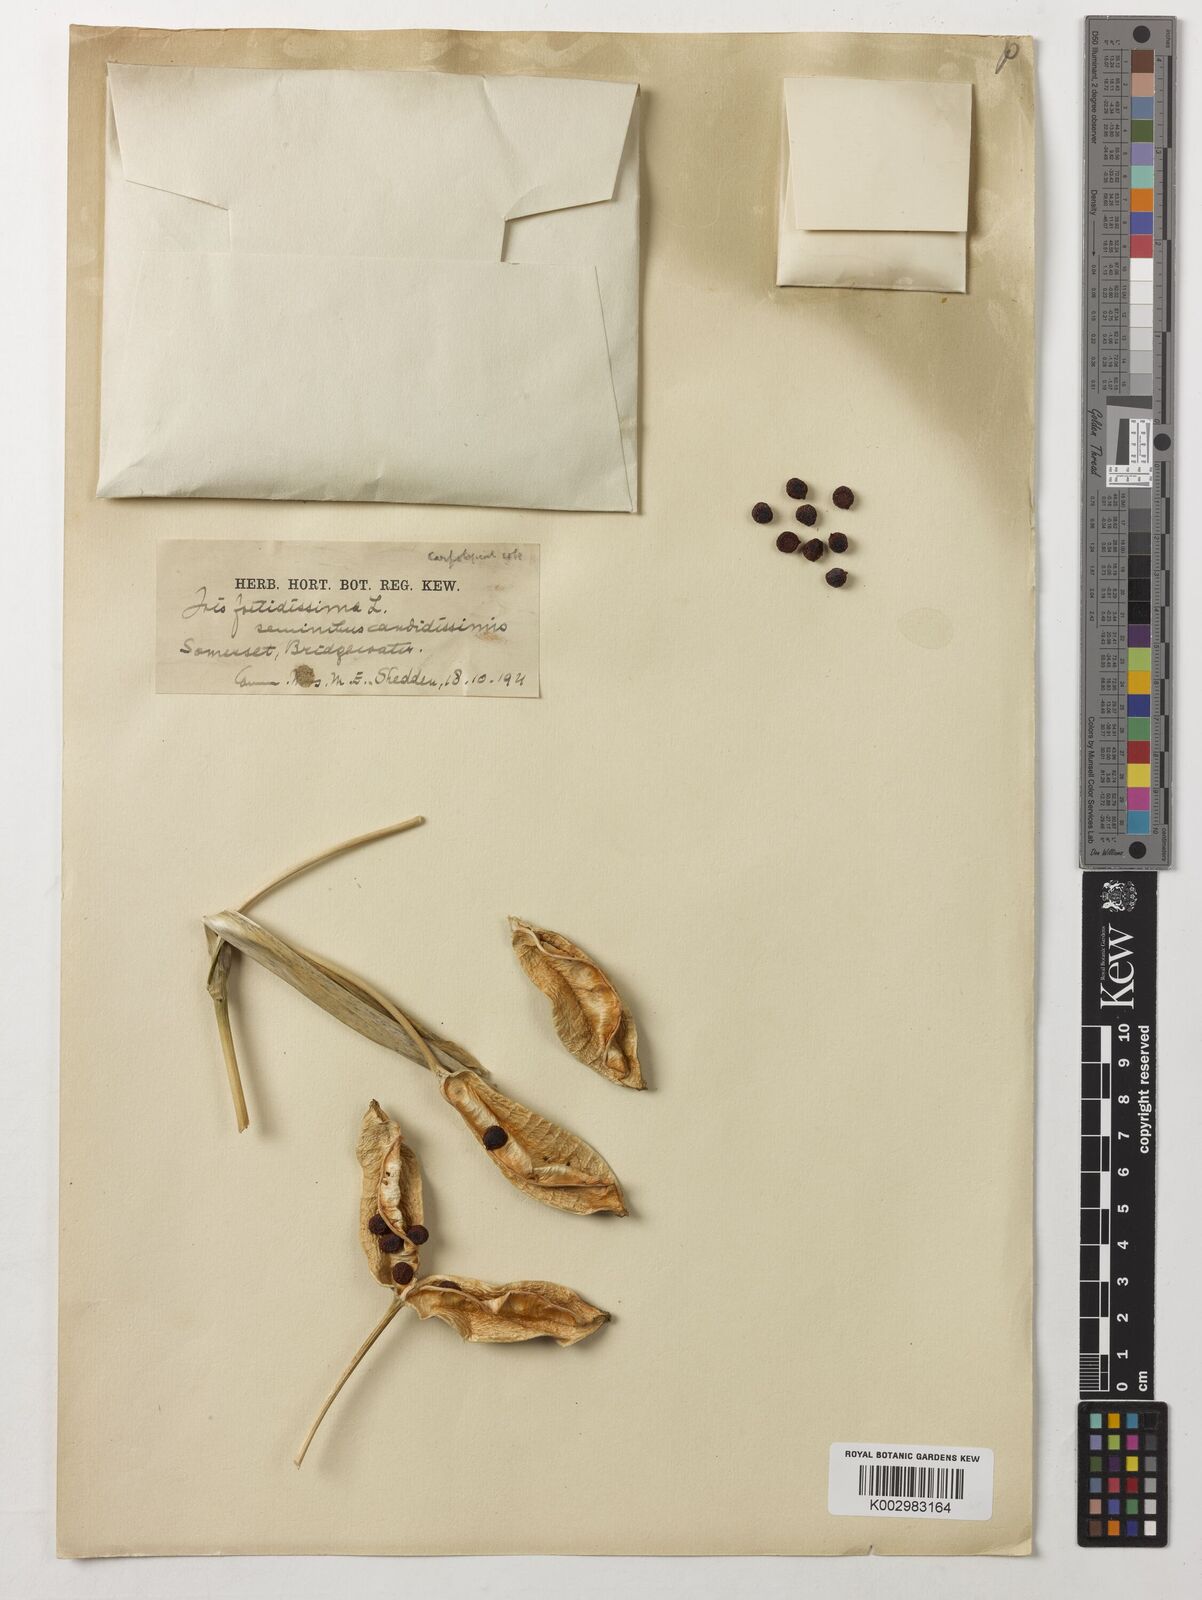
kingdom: Plantae
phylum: Tracheophyta
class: Liliopsida
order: Asparagales
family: Iridaceae
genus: Iris
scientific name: Iris foetidissima
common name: Stinking iris
